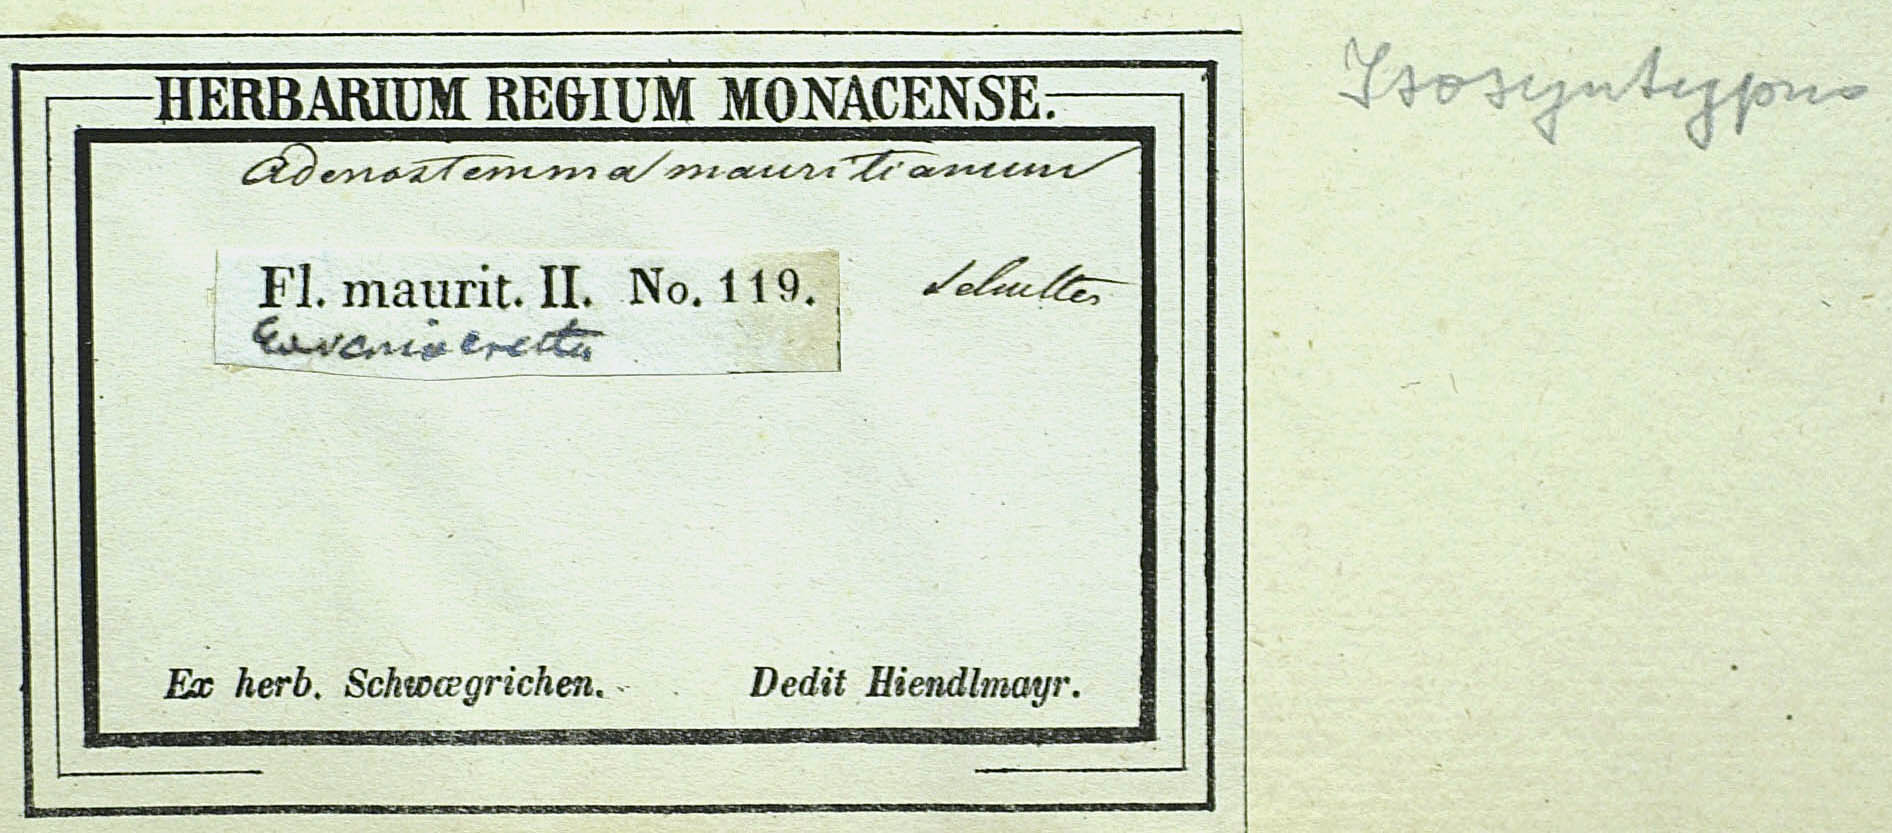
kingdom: Plantae
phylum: Tracheophyta
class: Magnoliopsida
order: Asterales
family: Asteraceae
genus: Adenostemma
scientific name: Adenostemma mauritianum
